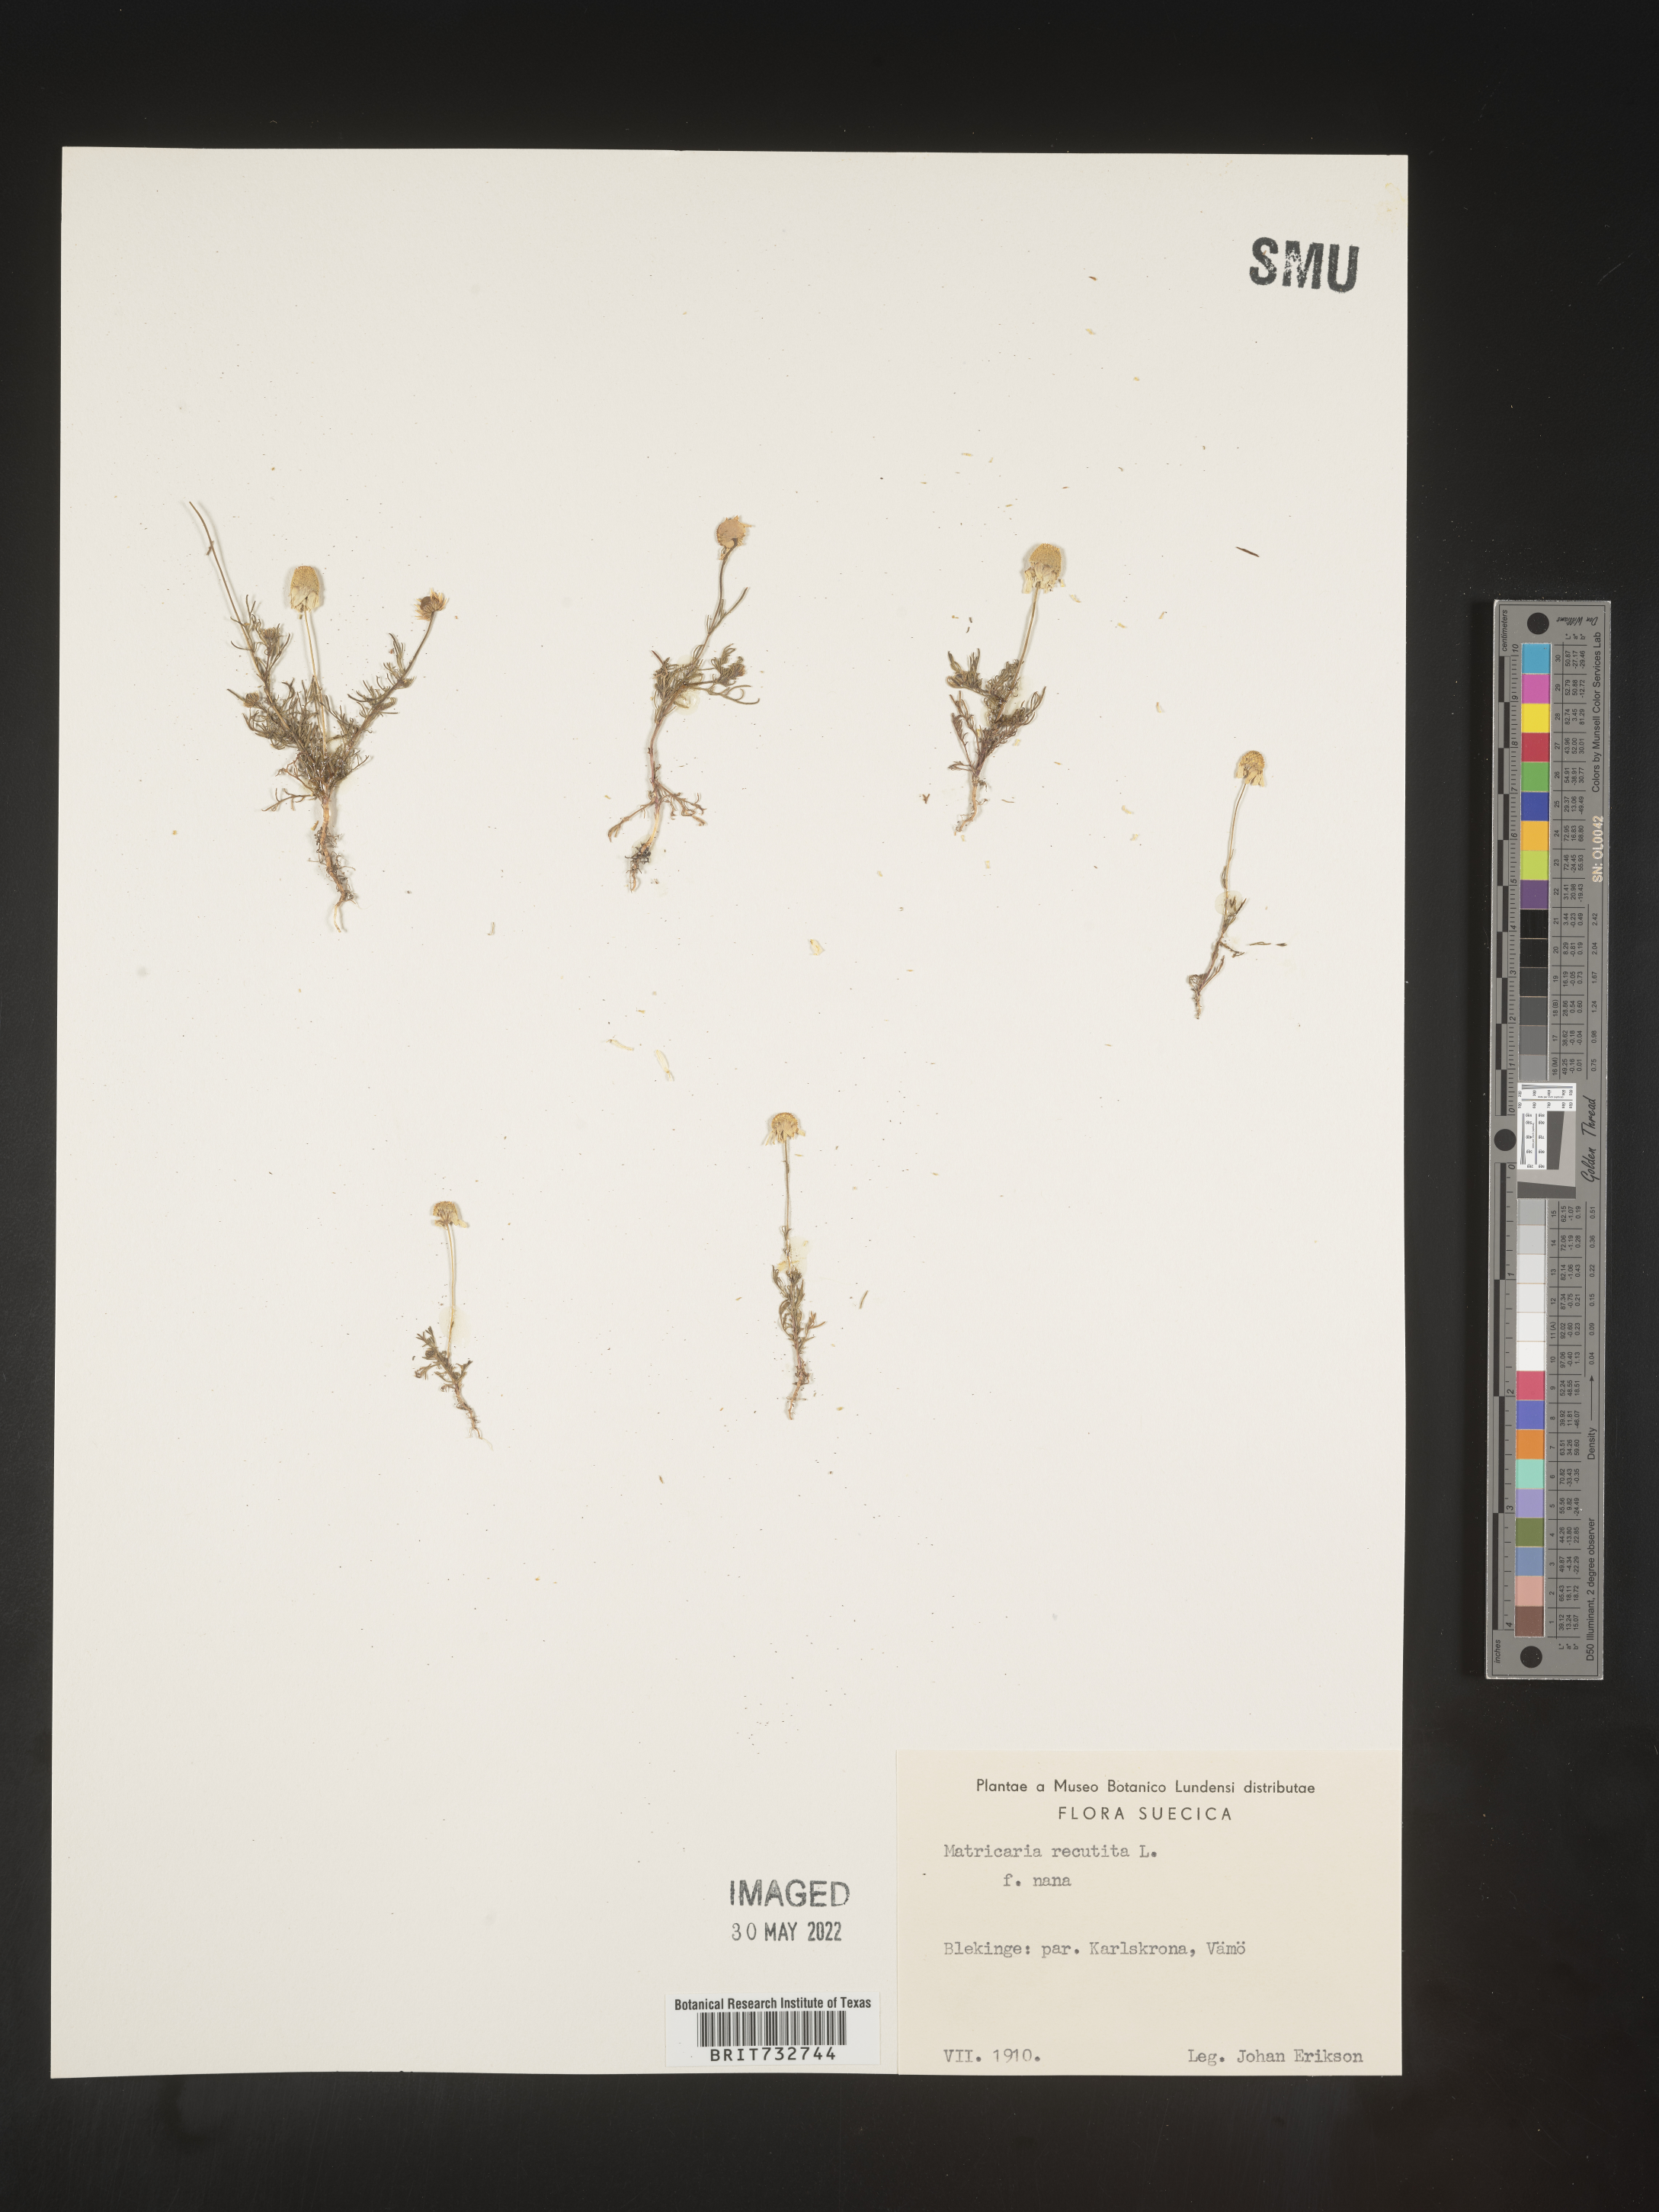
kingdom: Plantae
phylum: Tracheophyta
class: Magnoliopsida
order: Asterales
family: Asteraceae
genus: Matricaria
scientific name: Matricaria
